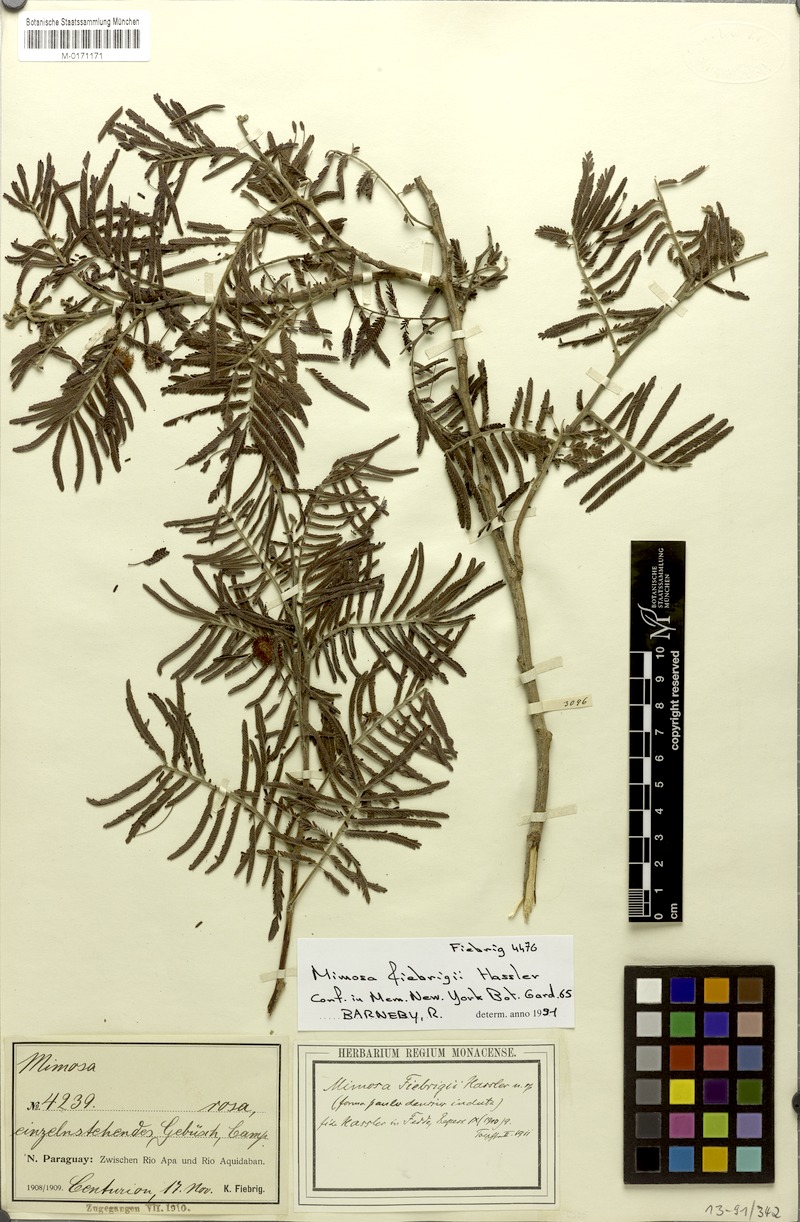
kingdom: Plantae
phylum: Tracheophyta
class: Magnoliopsida
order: Fabales
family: Fabaceae
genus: Mimosa
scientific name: Mimosa fiebrigii
